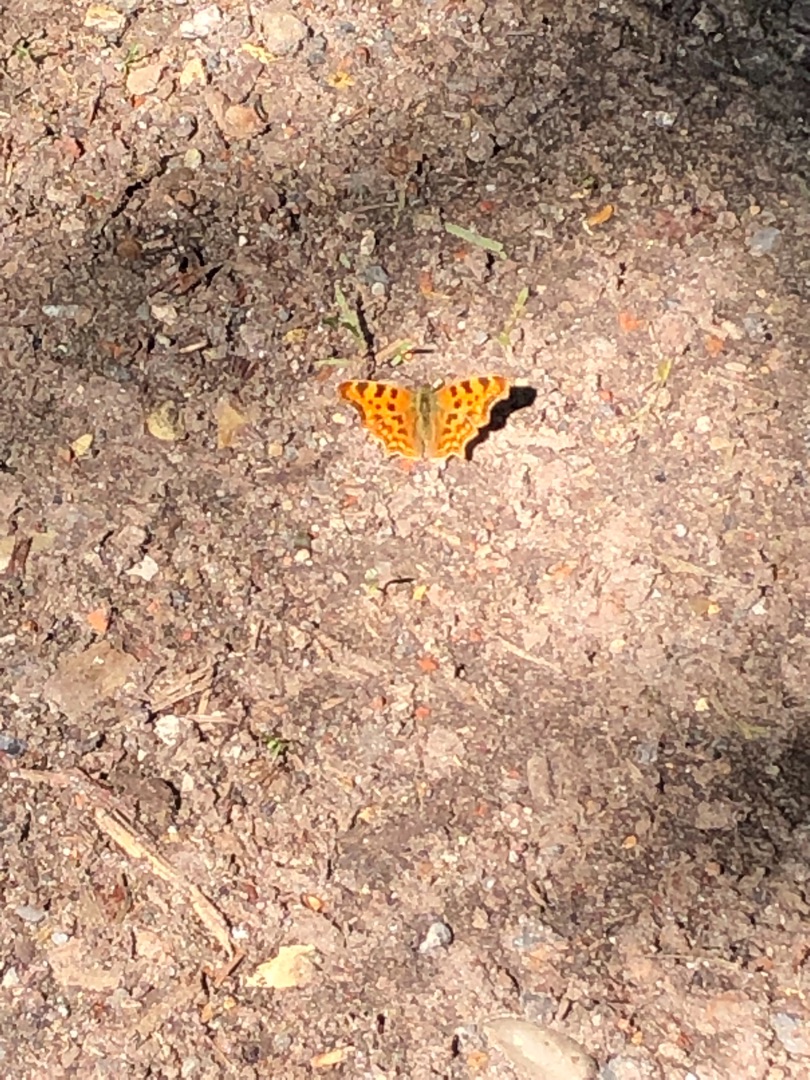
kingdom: Animalia
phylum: Arthropoda
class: Insecta
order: Lepidoptera
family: Nymphalidae
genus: Polygonia
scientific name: Polygonia c-album
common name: Det hvide C
